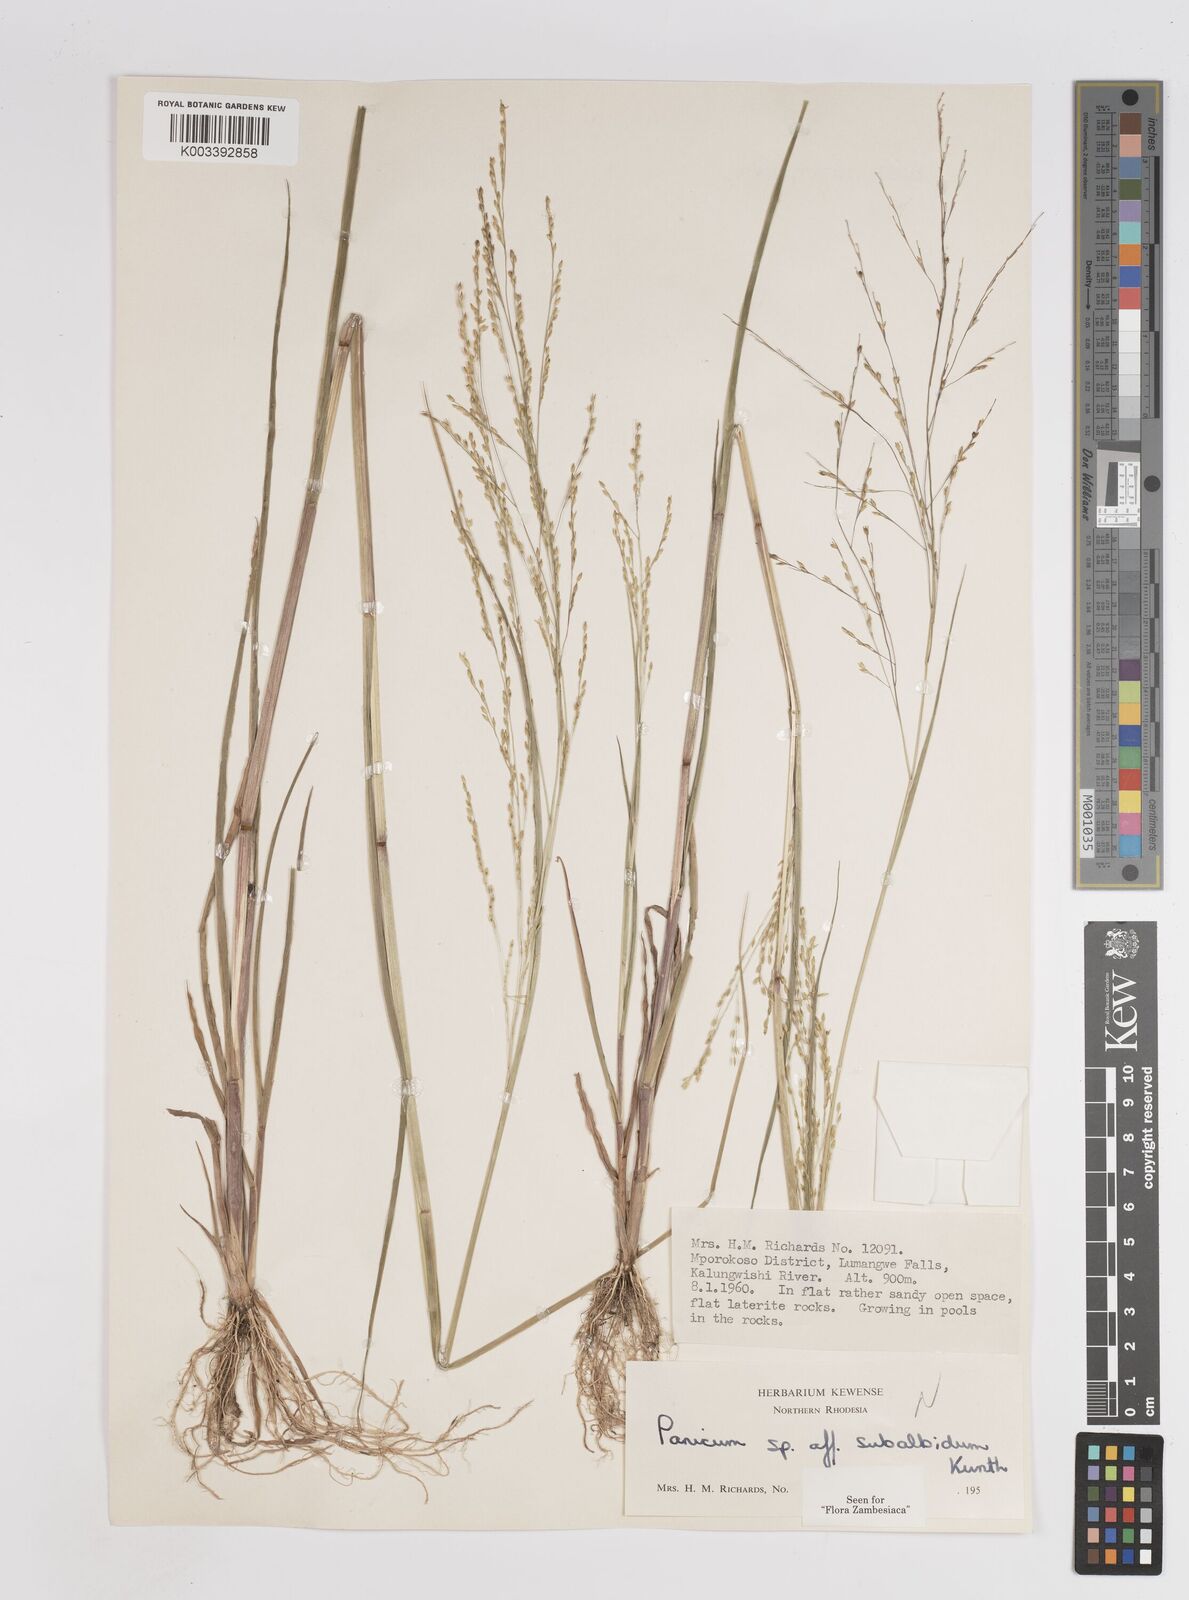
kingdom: Plantae
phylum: Tracheophyta
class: Liliopsida
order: Poales
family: Poaceae
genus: Panicum
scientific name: Panicum subalbidum
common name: Elbow buffalo grass
